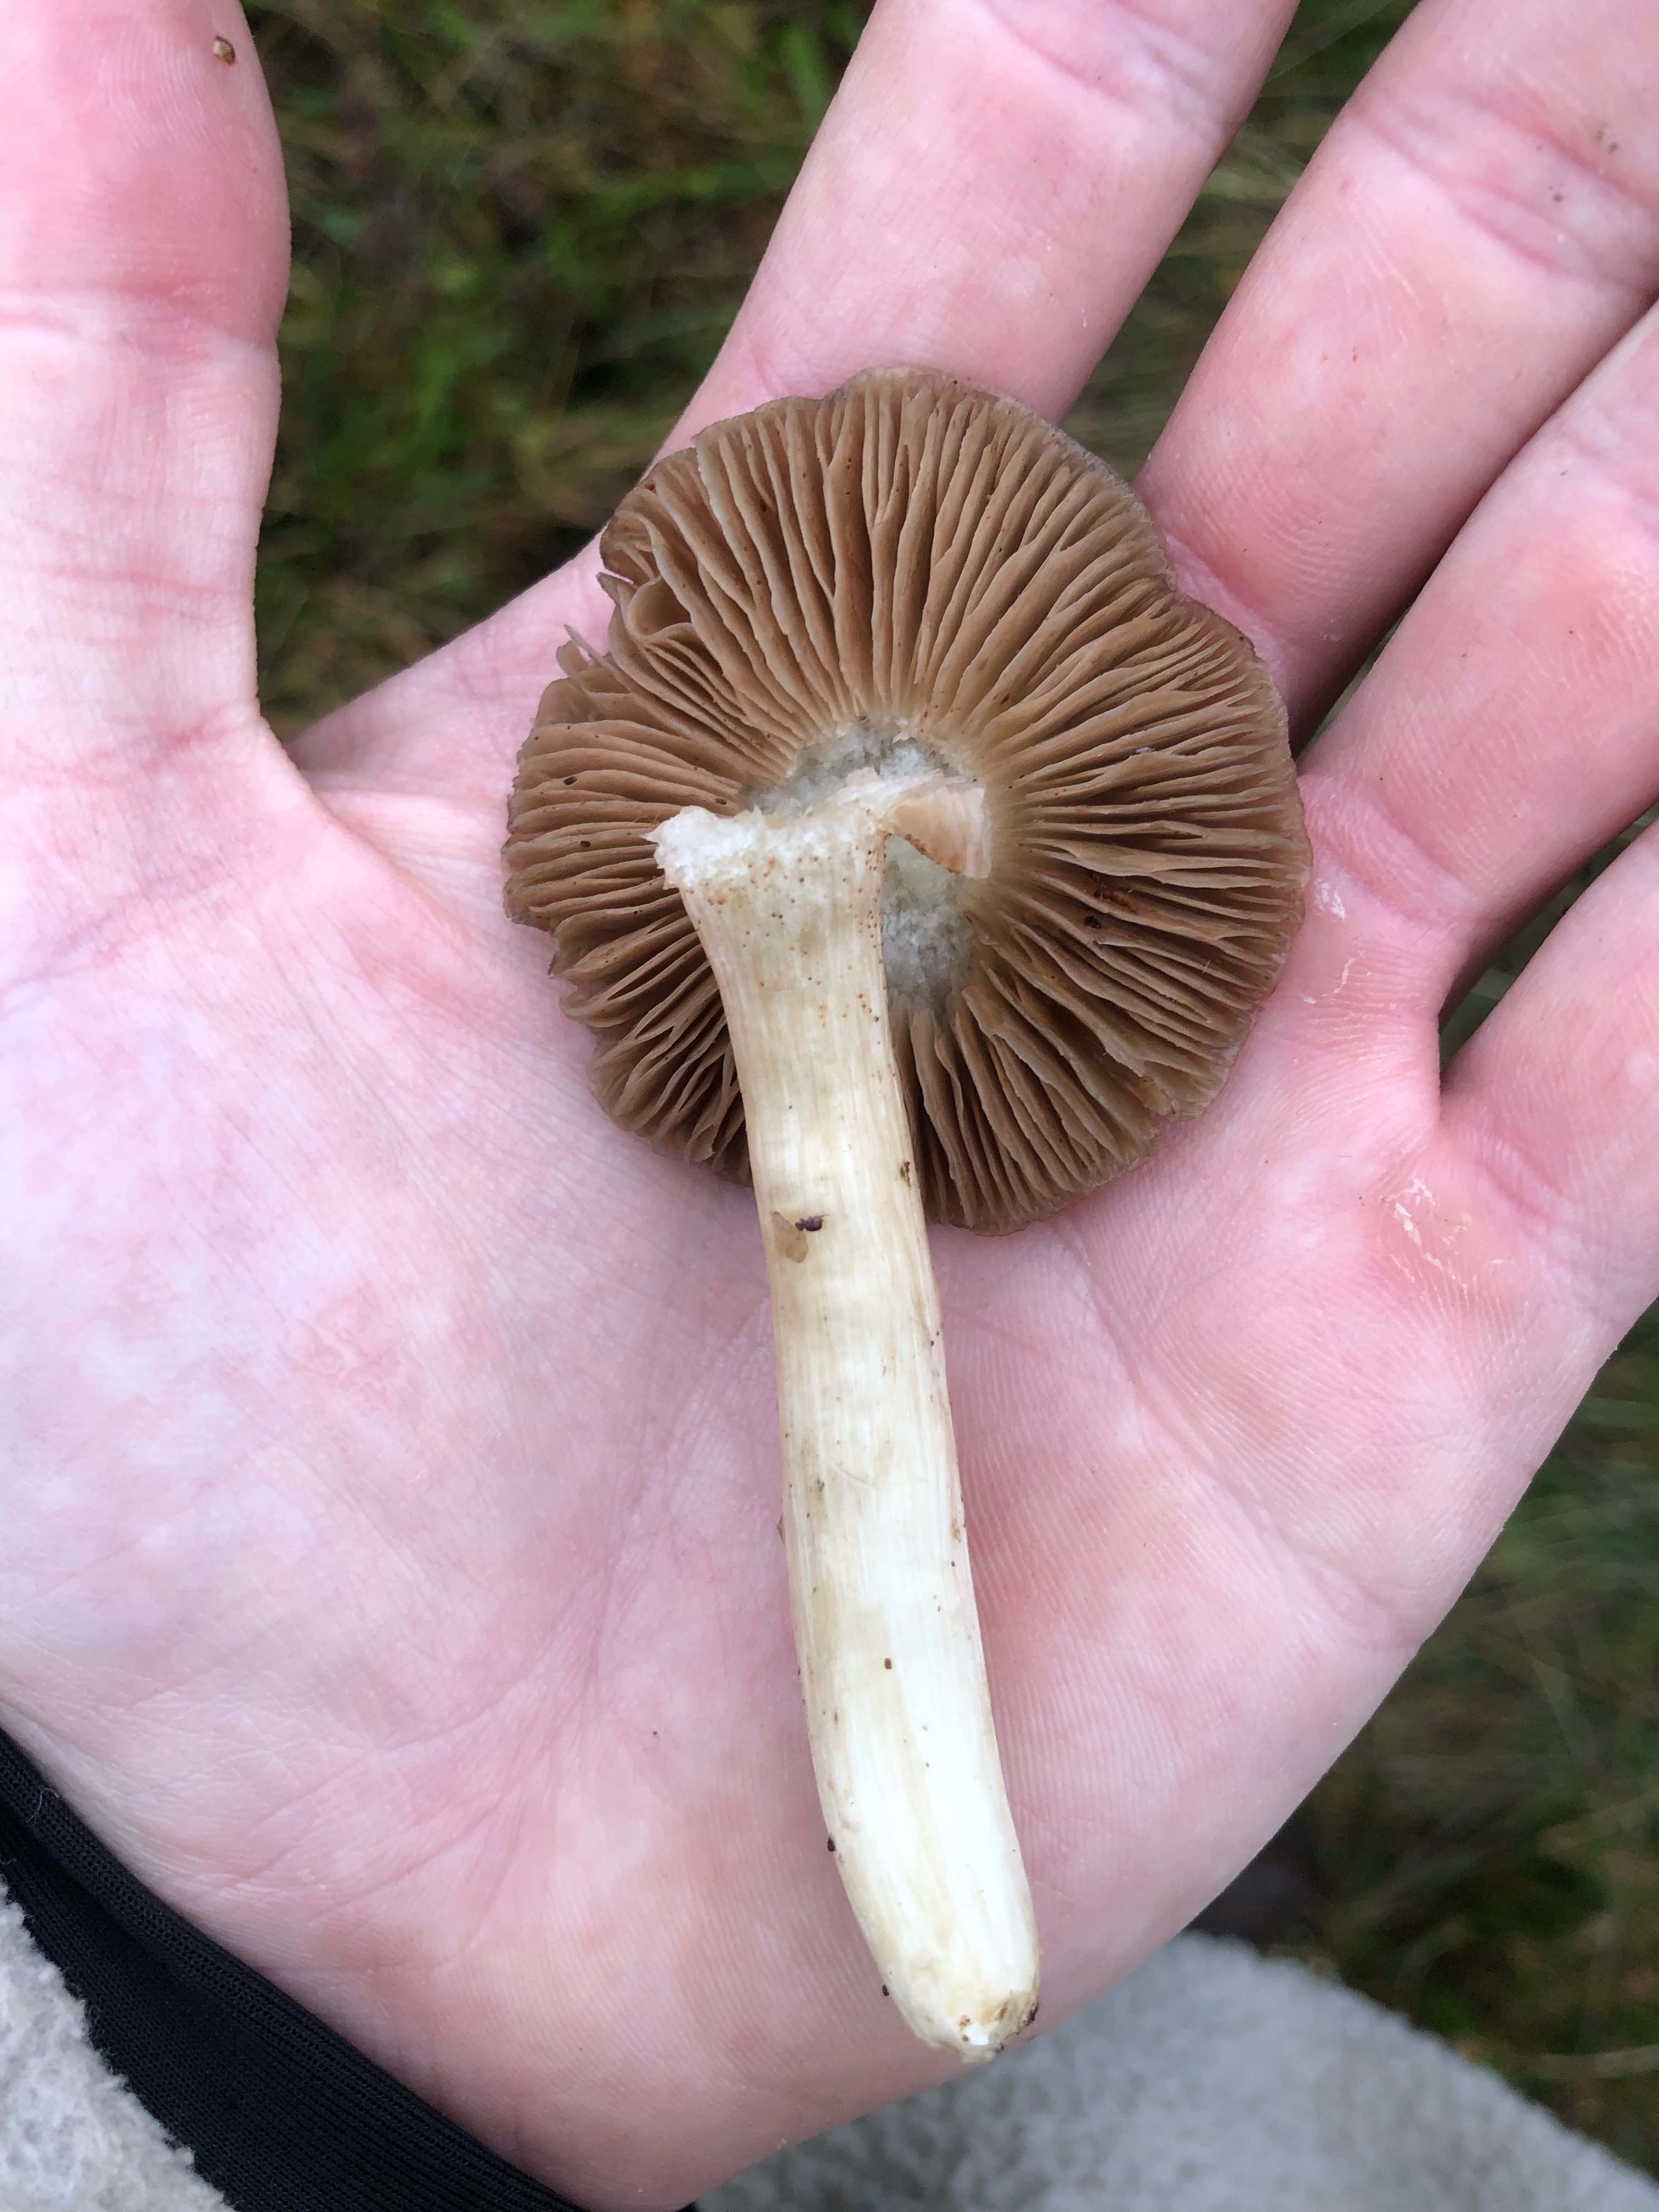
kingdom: Fungi
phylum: Basidiomycota
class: Agaricomycetes
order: Agaricales
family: Entolomataceae
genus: Entoloma
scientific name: Entoloma prunuloides
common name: mel-rødblad
